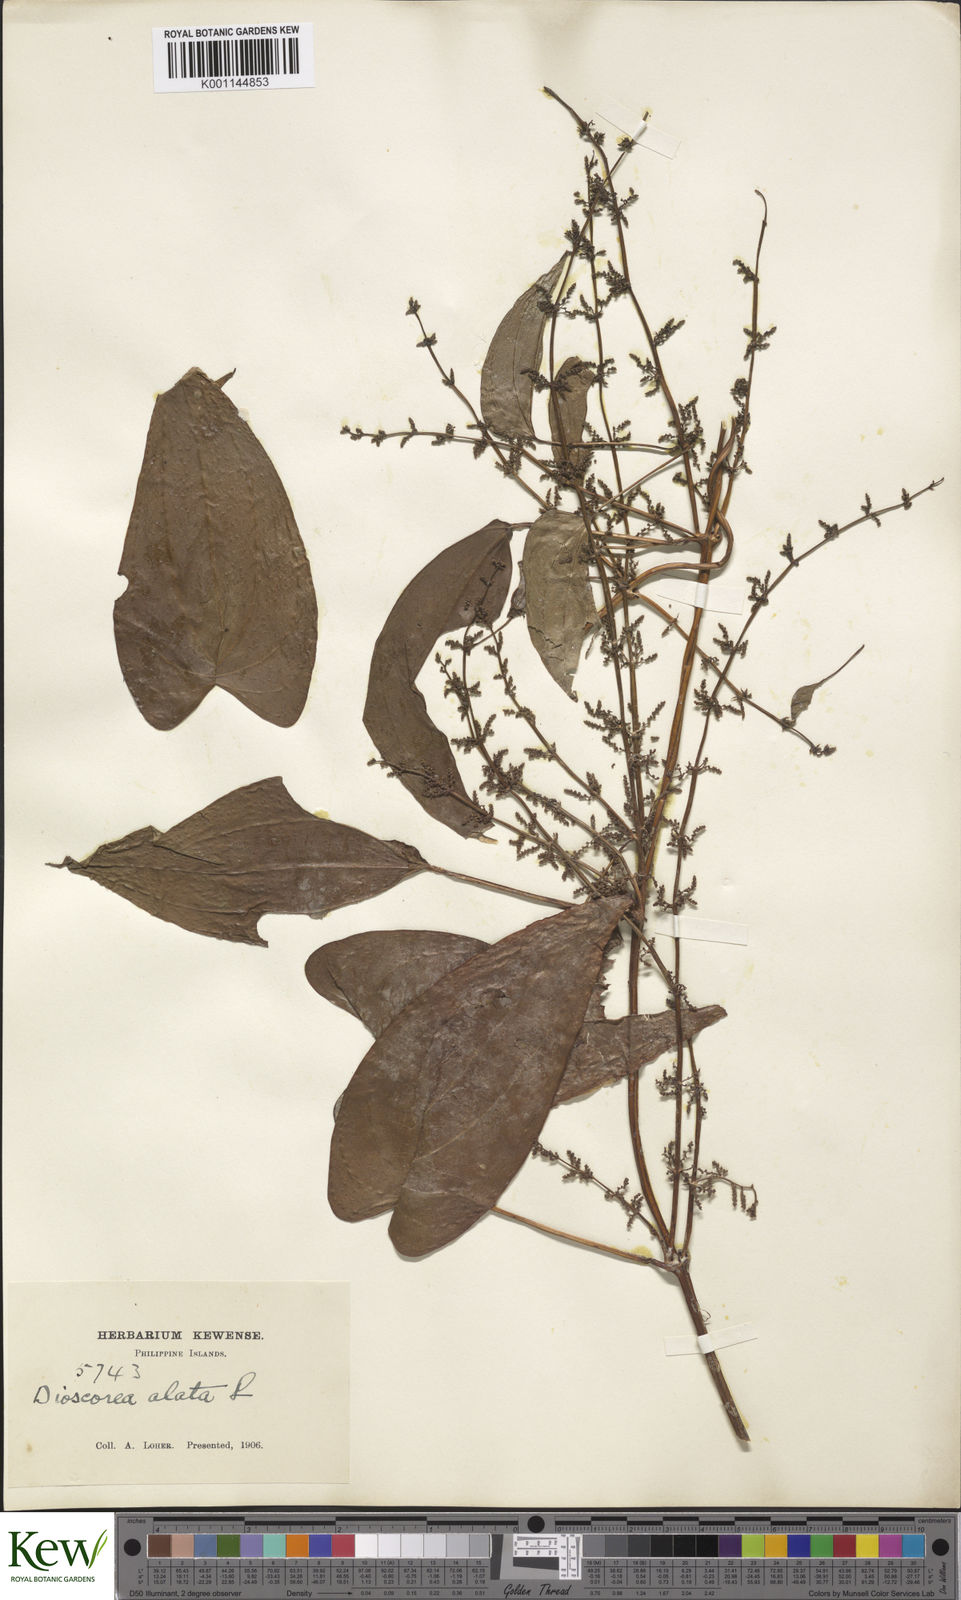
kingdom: Plantae
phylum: Tracheophyta
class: Liliopsida
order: Dioscoreales
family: Dioscoreaceae
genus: Dioscorea
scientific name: Dioscorea alata
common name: Water yam
